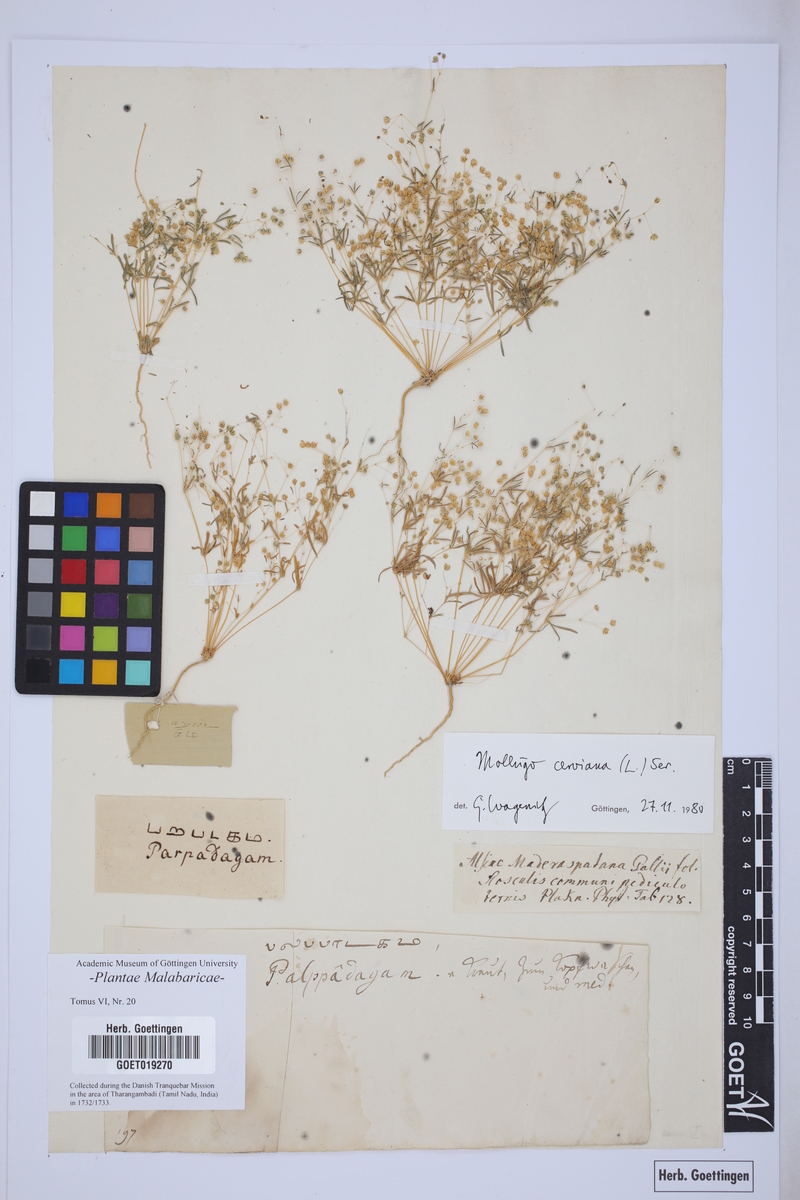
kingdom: Plantae
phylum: Tracheophyta
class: Magnoliopsida
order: Caryophyllales
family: Molluginaceae
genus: Hypertelis
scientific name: Hypertelis cerviana
